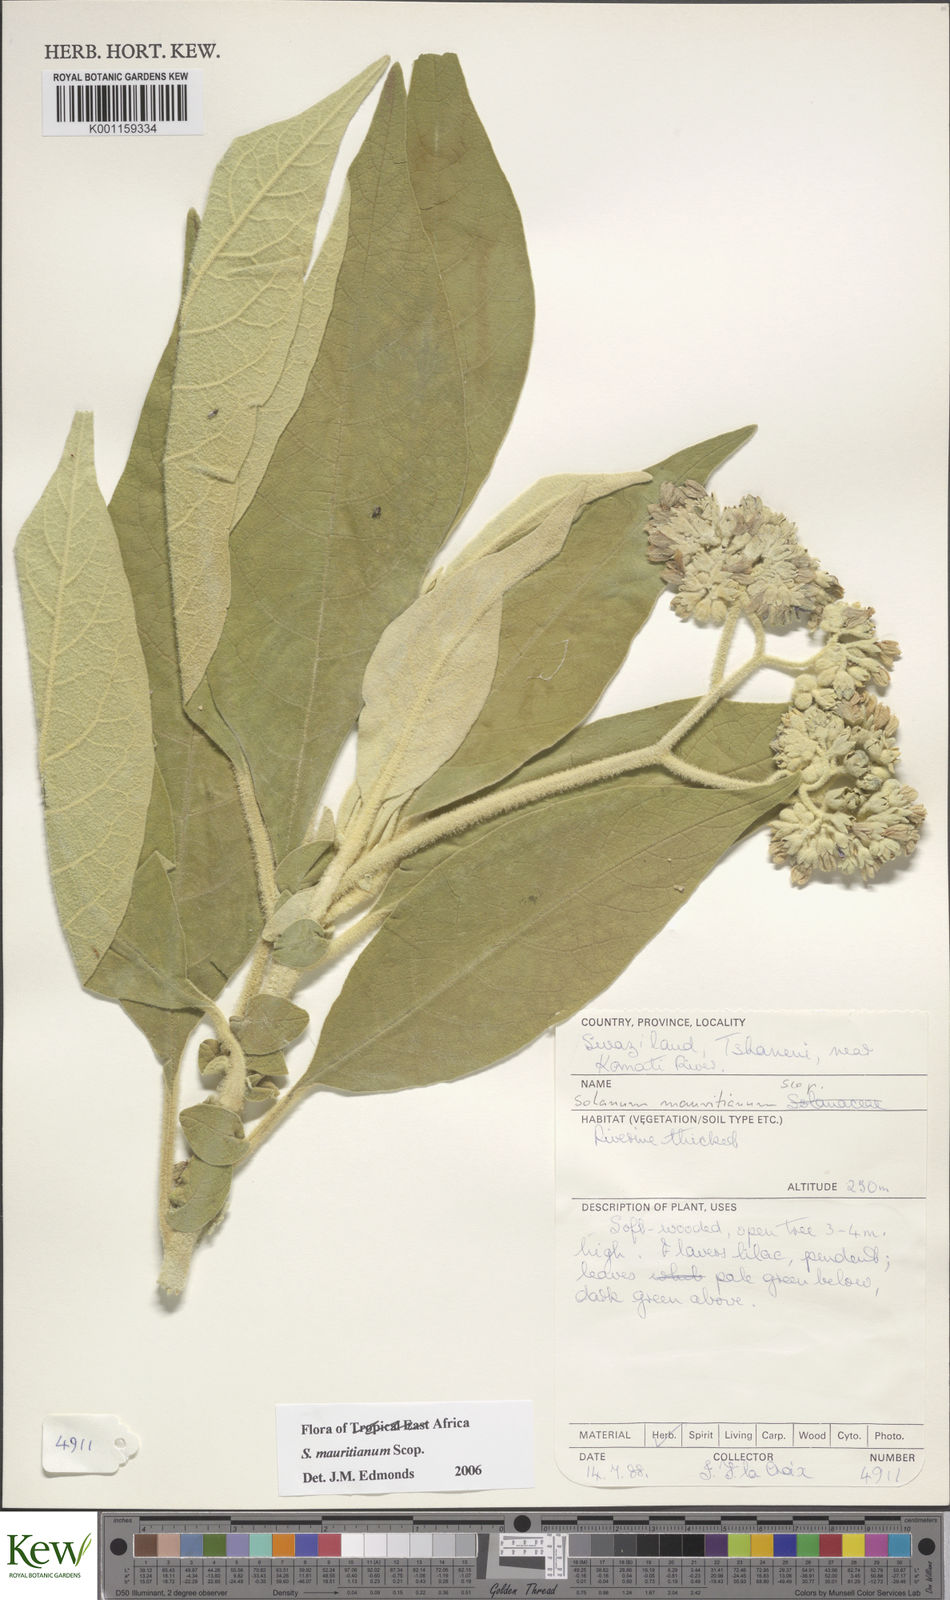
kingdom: Plantae
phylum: Tracheophyta
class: Magnoliopsida
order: Solanales
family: Solanaceae
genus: Solanum
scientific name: Solanum mauritianum
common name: Earleaf nightshade
